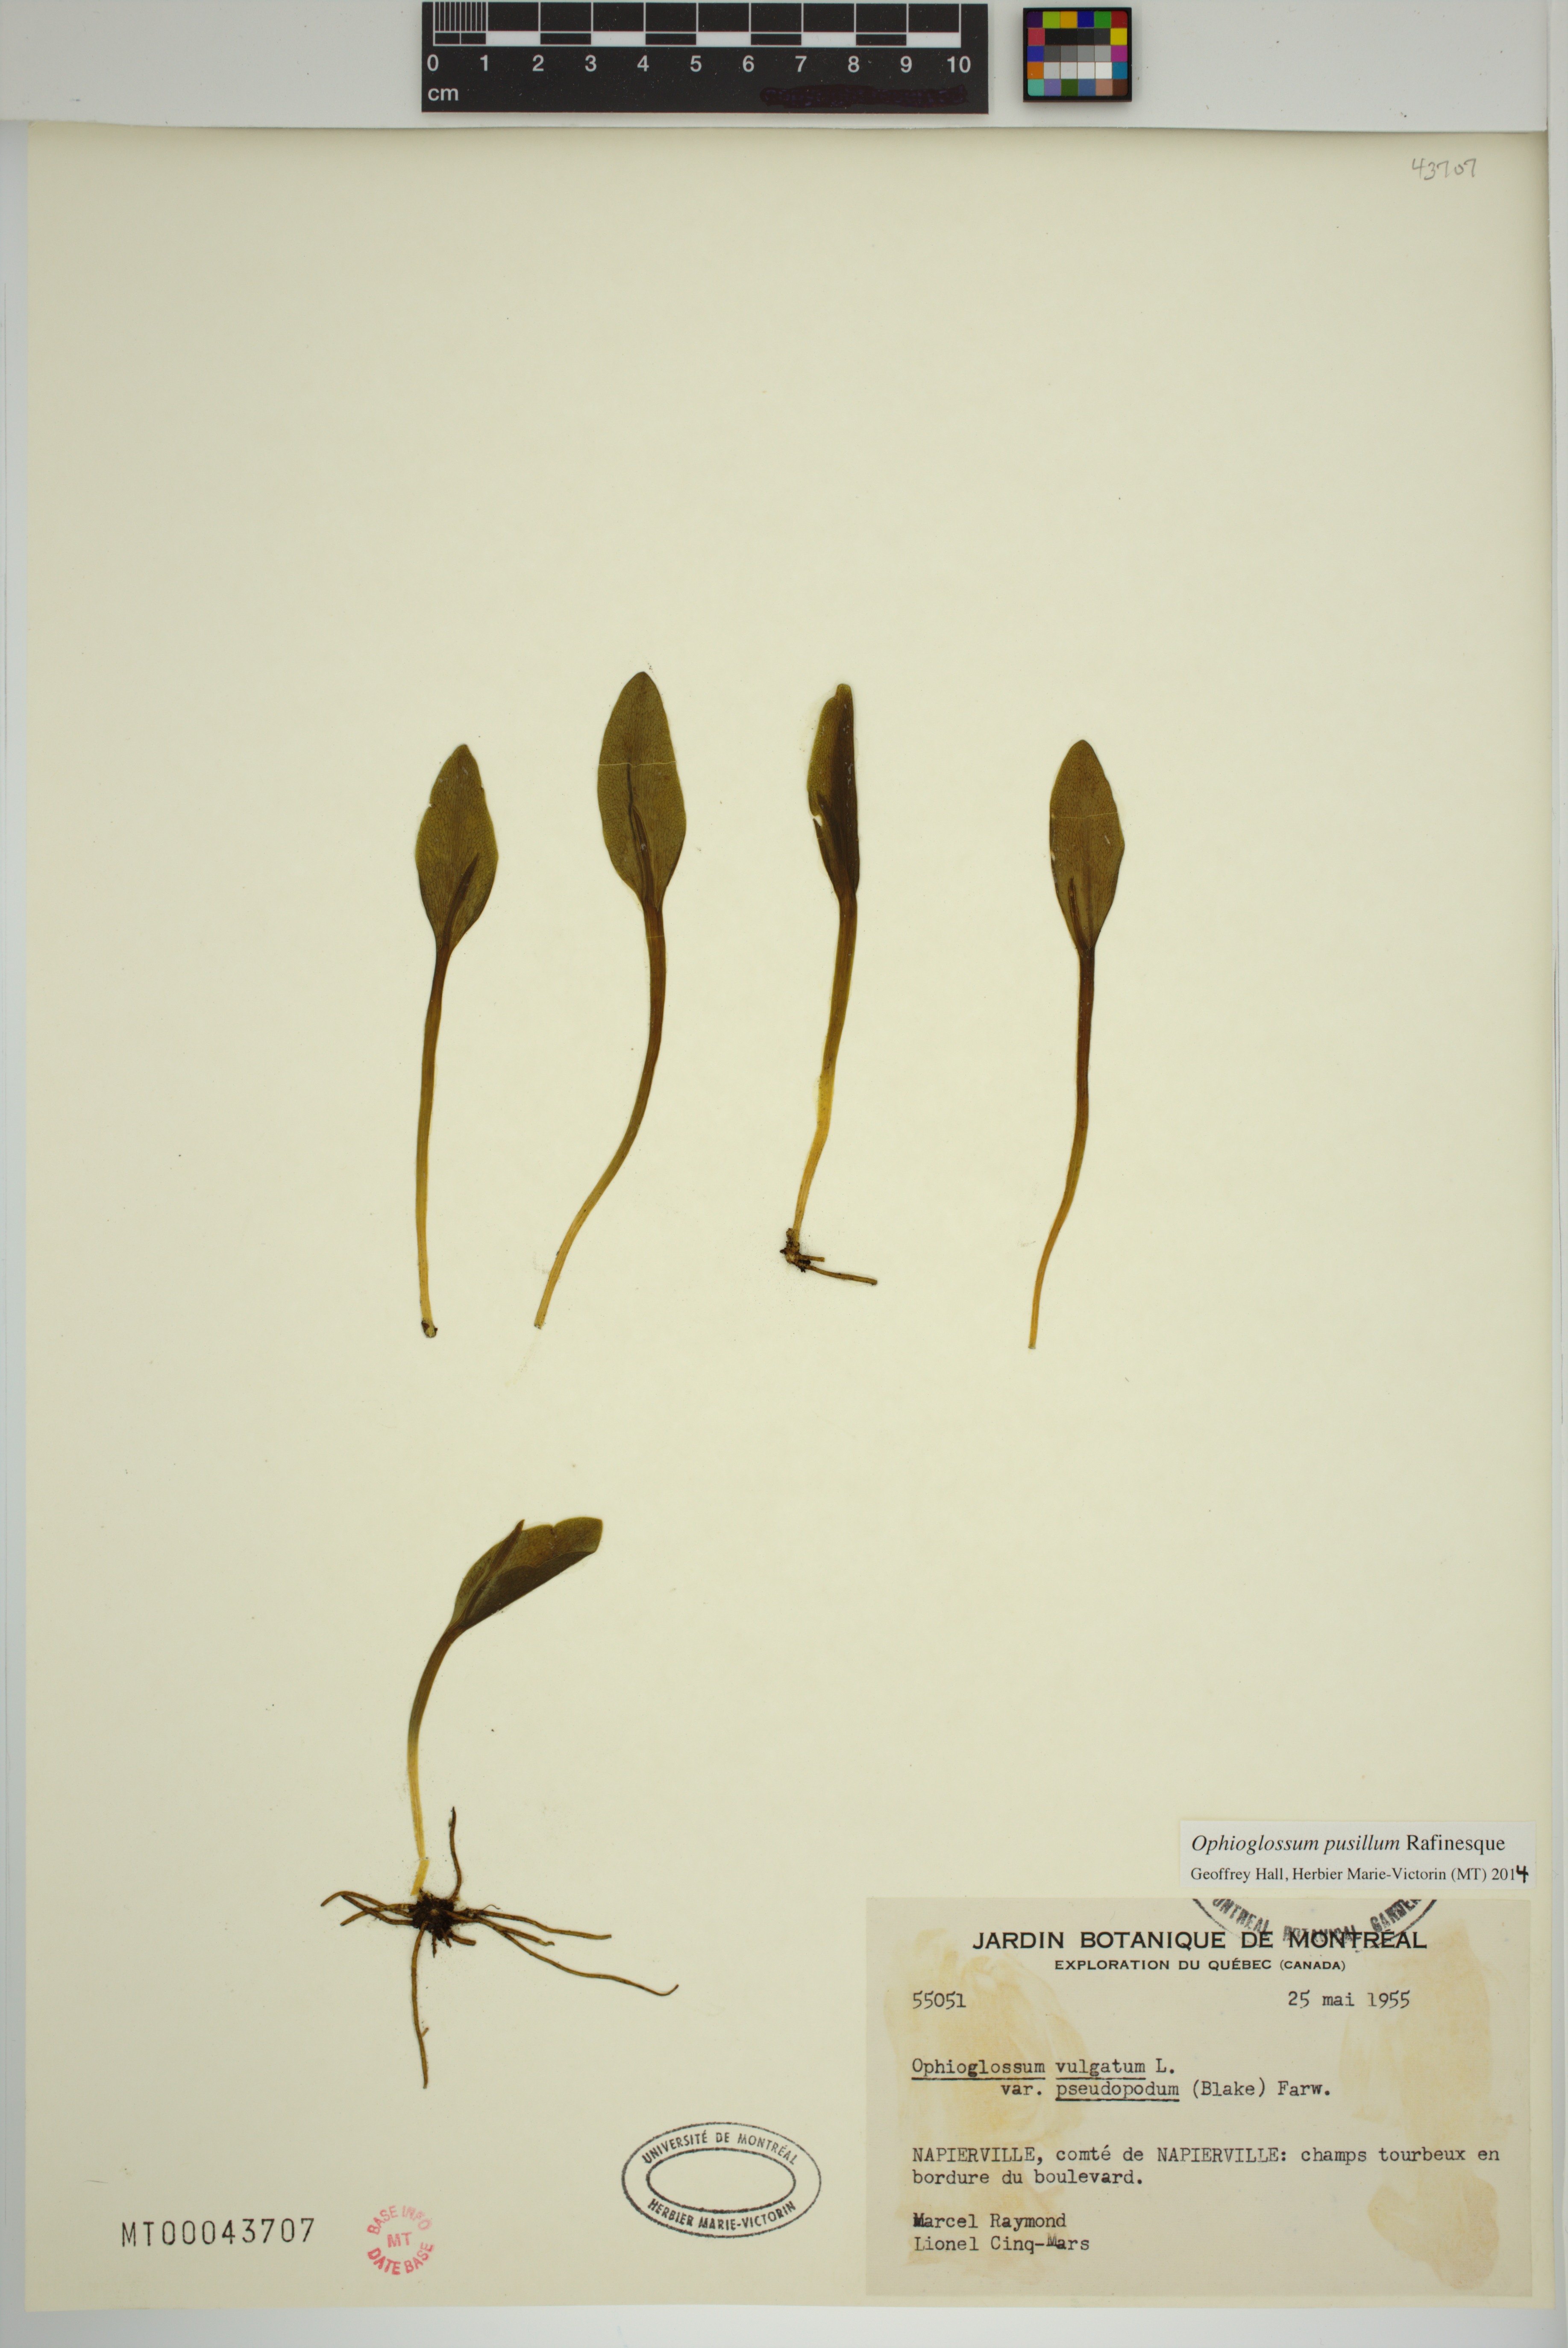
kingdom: Plantae
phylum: Tracheophyta
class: Polypodiopsida
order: Ophioglossales
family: Ophioglossaceae
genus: Ophioglossum
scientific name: Ophioglossum pusillum
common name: Northern adder's-tongue
